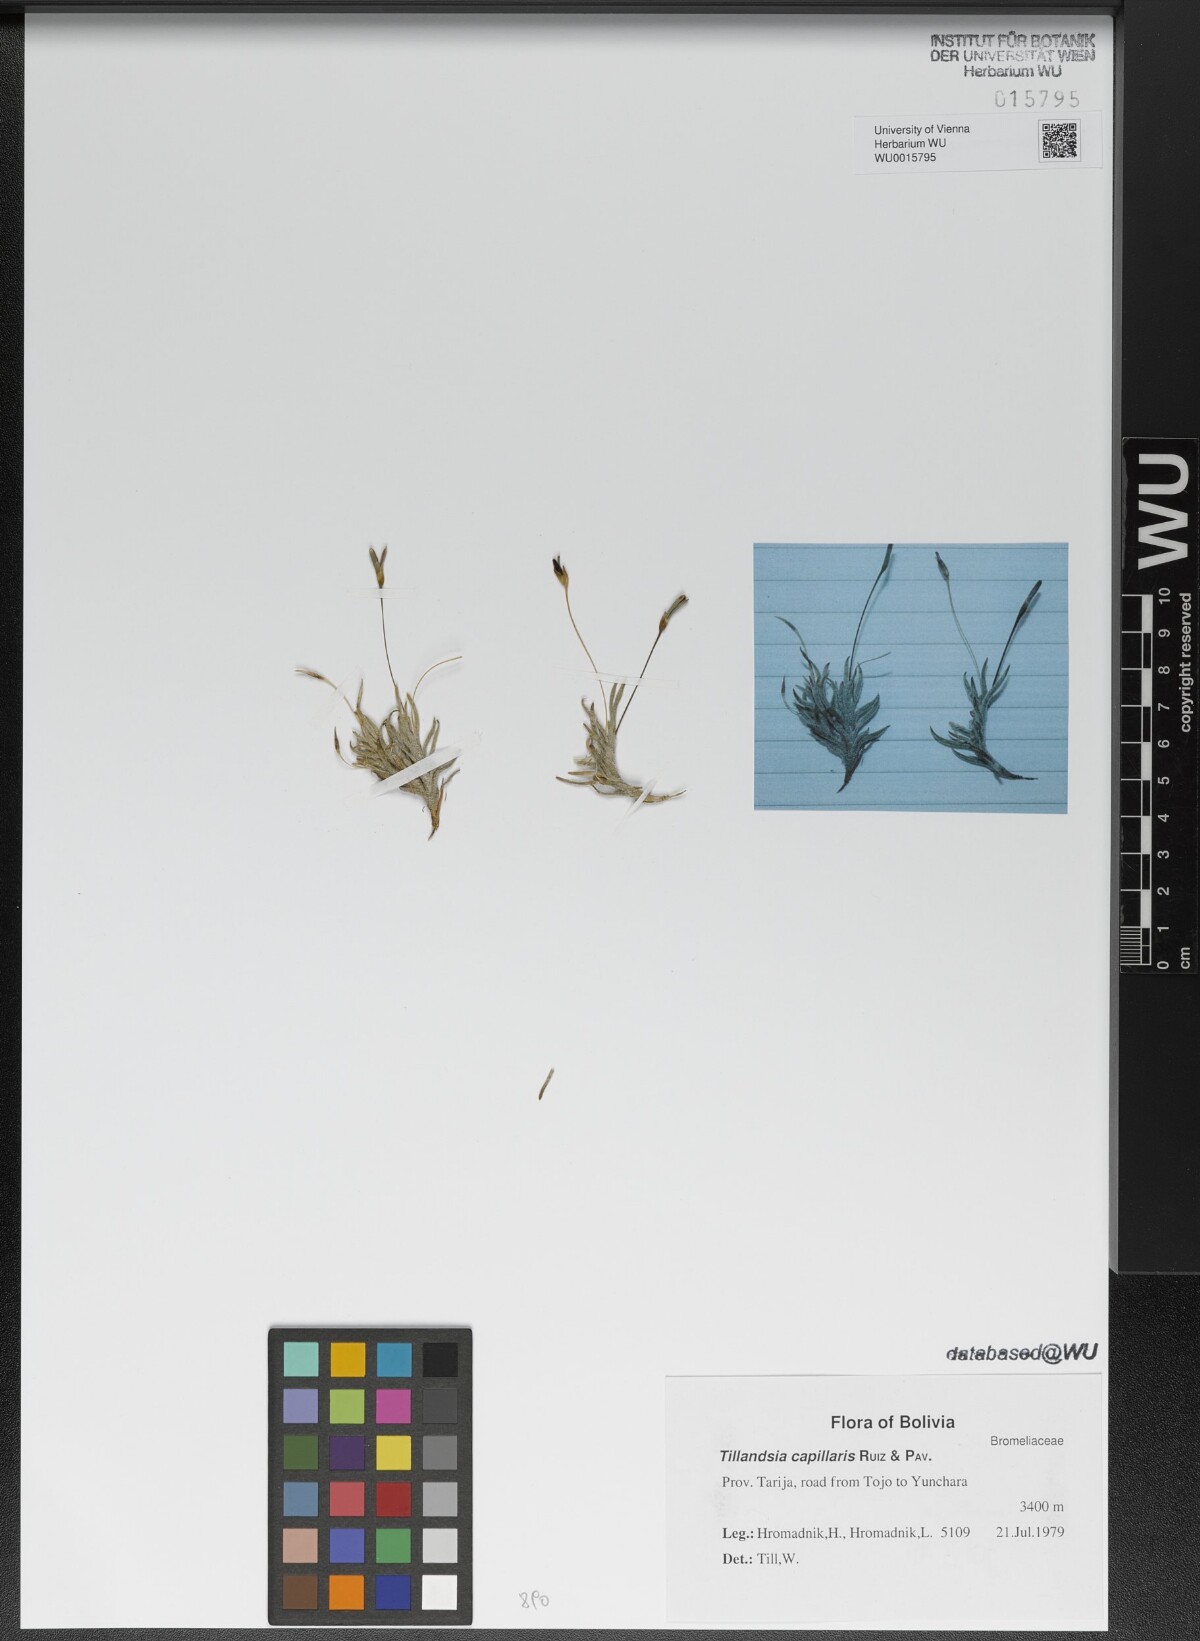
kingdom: Plantae
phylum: Tracheophyta
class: Liliopsida
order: Poales
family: Bromeliaceae
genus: Tillandsia
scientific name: Tillandsia capillaris
